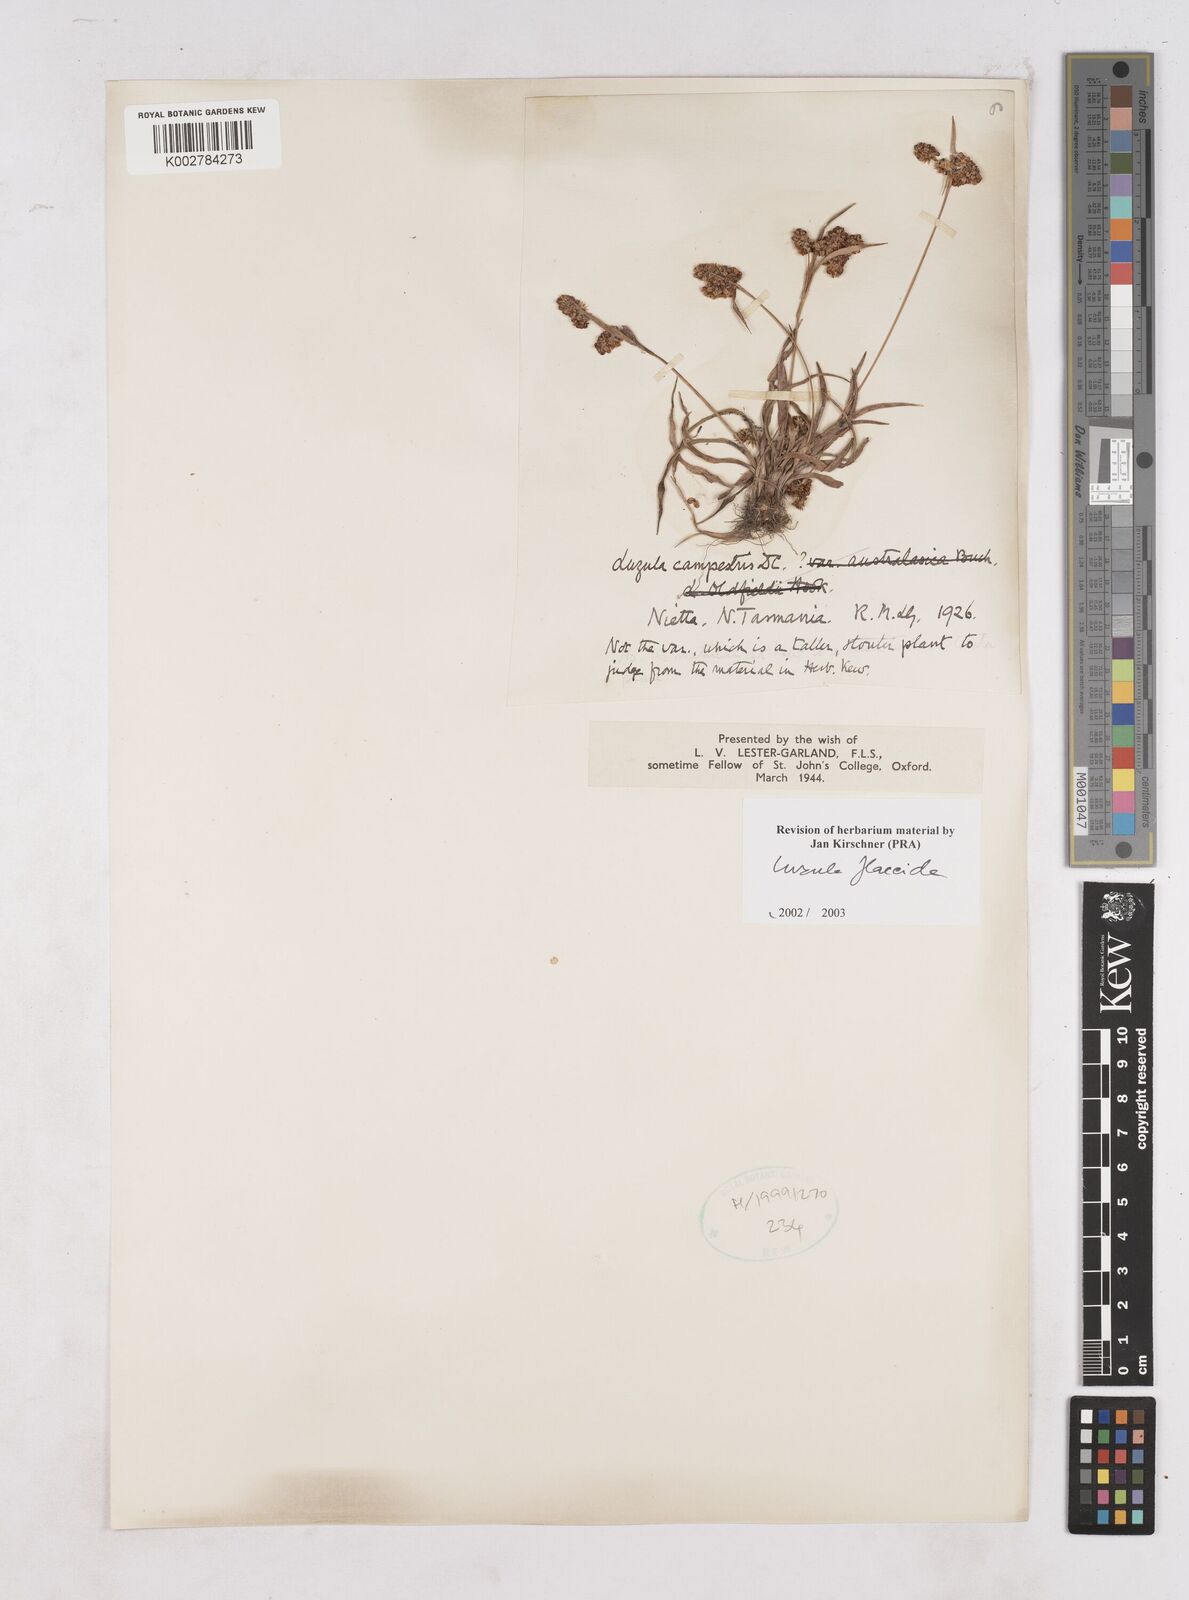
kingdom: Plantae
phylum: Tracheophyta
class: Liliopsida
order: Poales
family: Juncaceae
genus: Luzula
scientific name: Luzula flaccida
